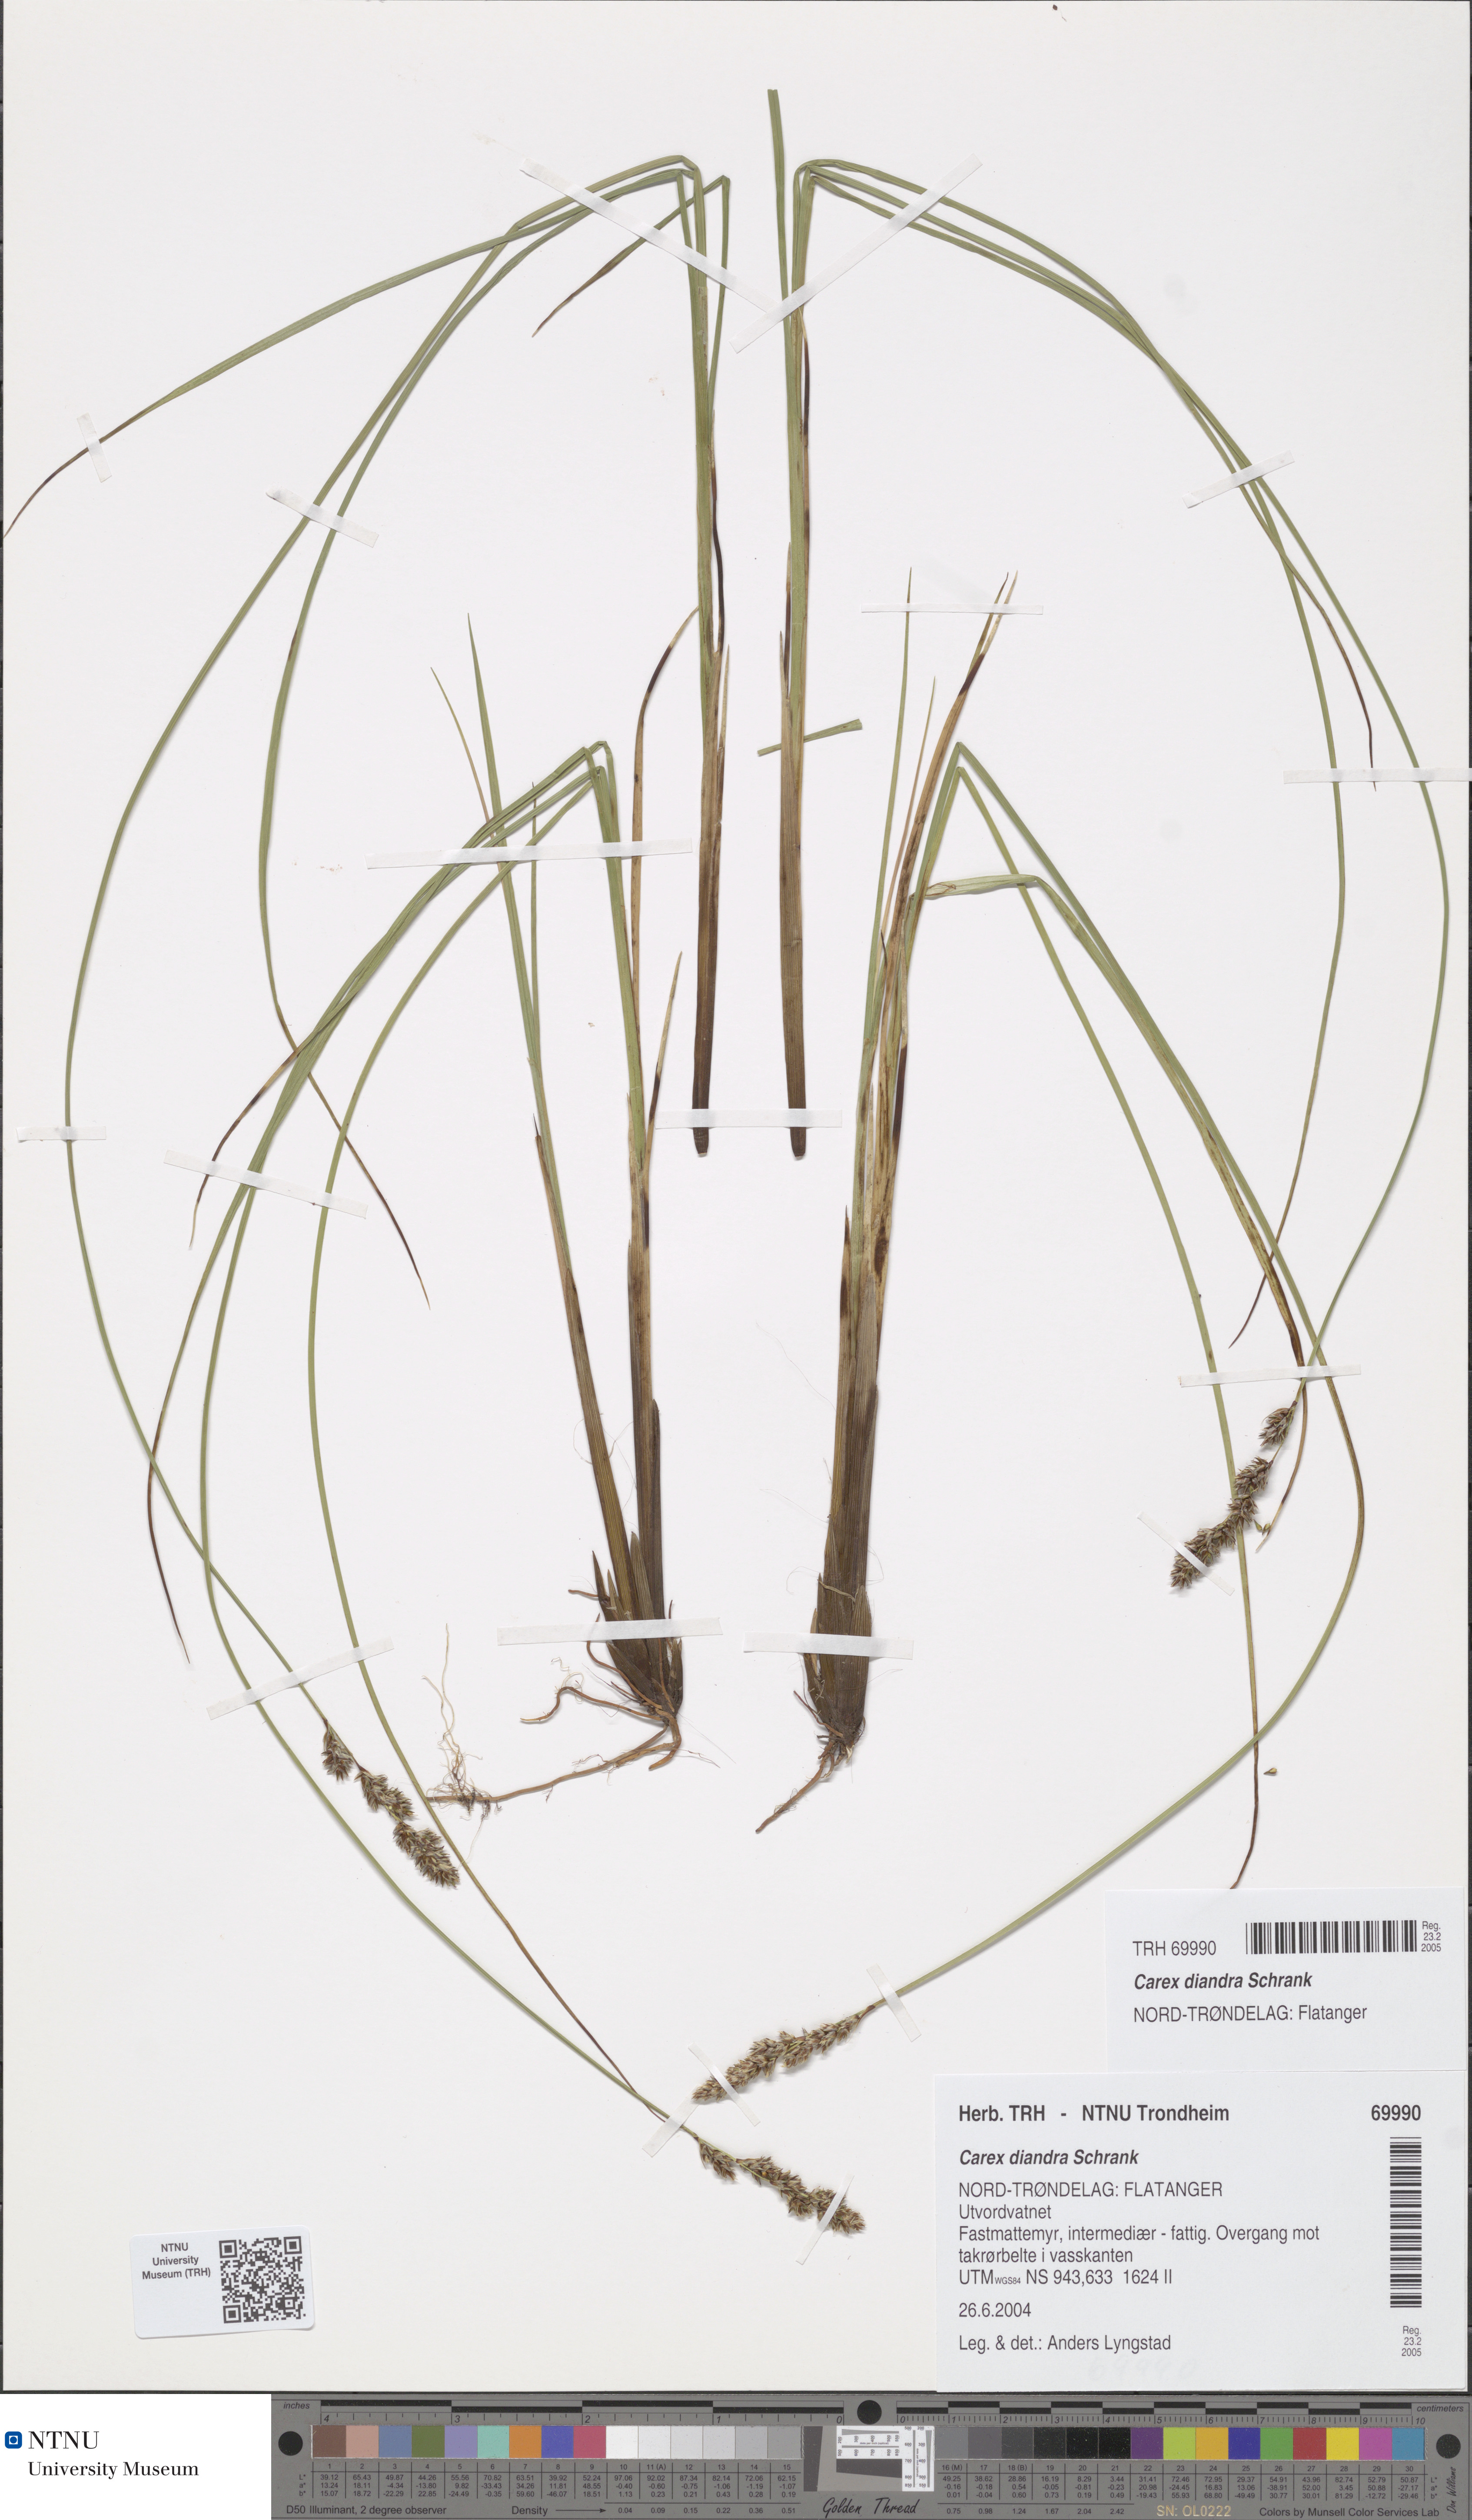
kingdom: Plantae
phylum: Tracheophyta
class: Liliopsida
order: Poales
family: Cyperaceae
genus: Carex
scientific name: Carex diandra
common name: Lesser tussock-sedge
